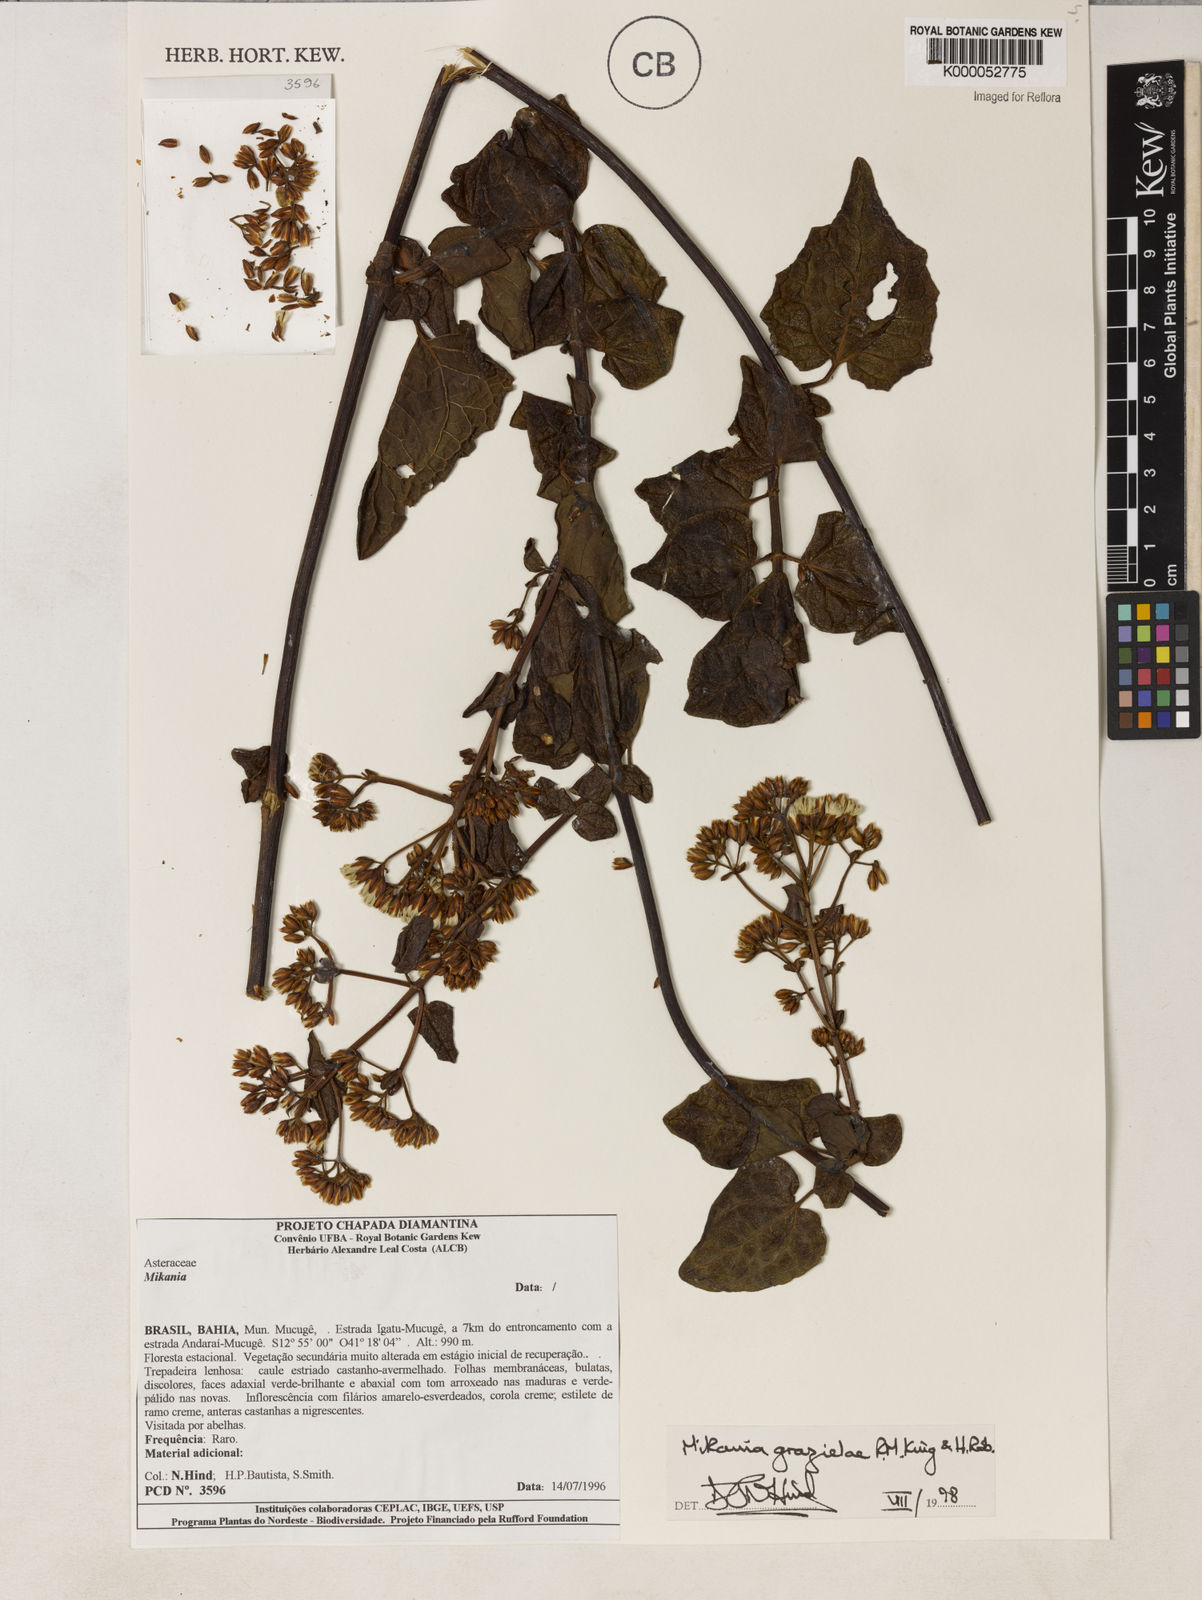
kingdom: Plantae
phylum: Tracheophyta
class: Magnoliopsida
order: Asterales
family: Asteraceae
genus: Mikania
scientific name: Mikania grazielae
